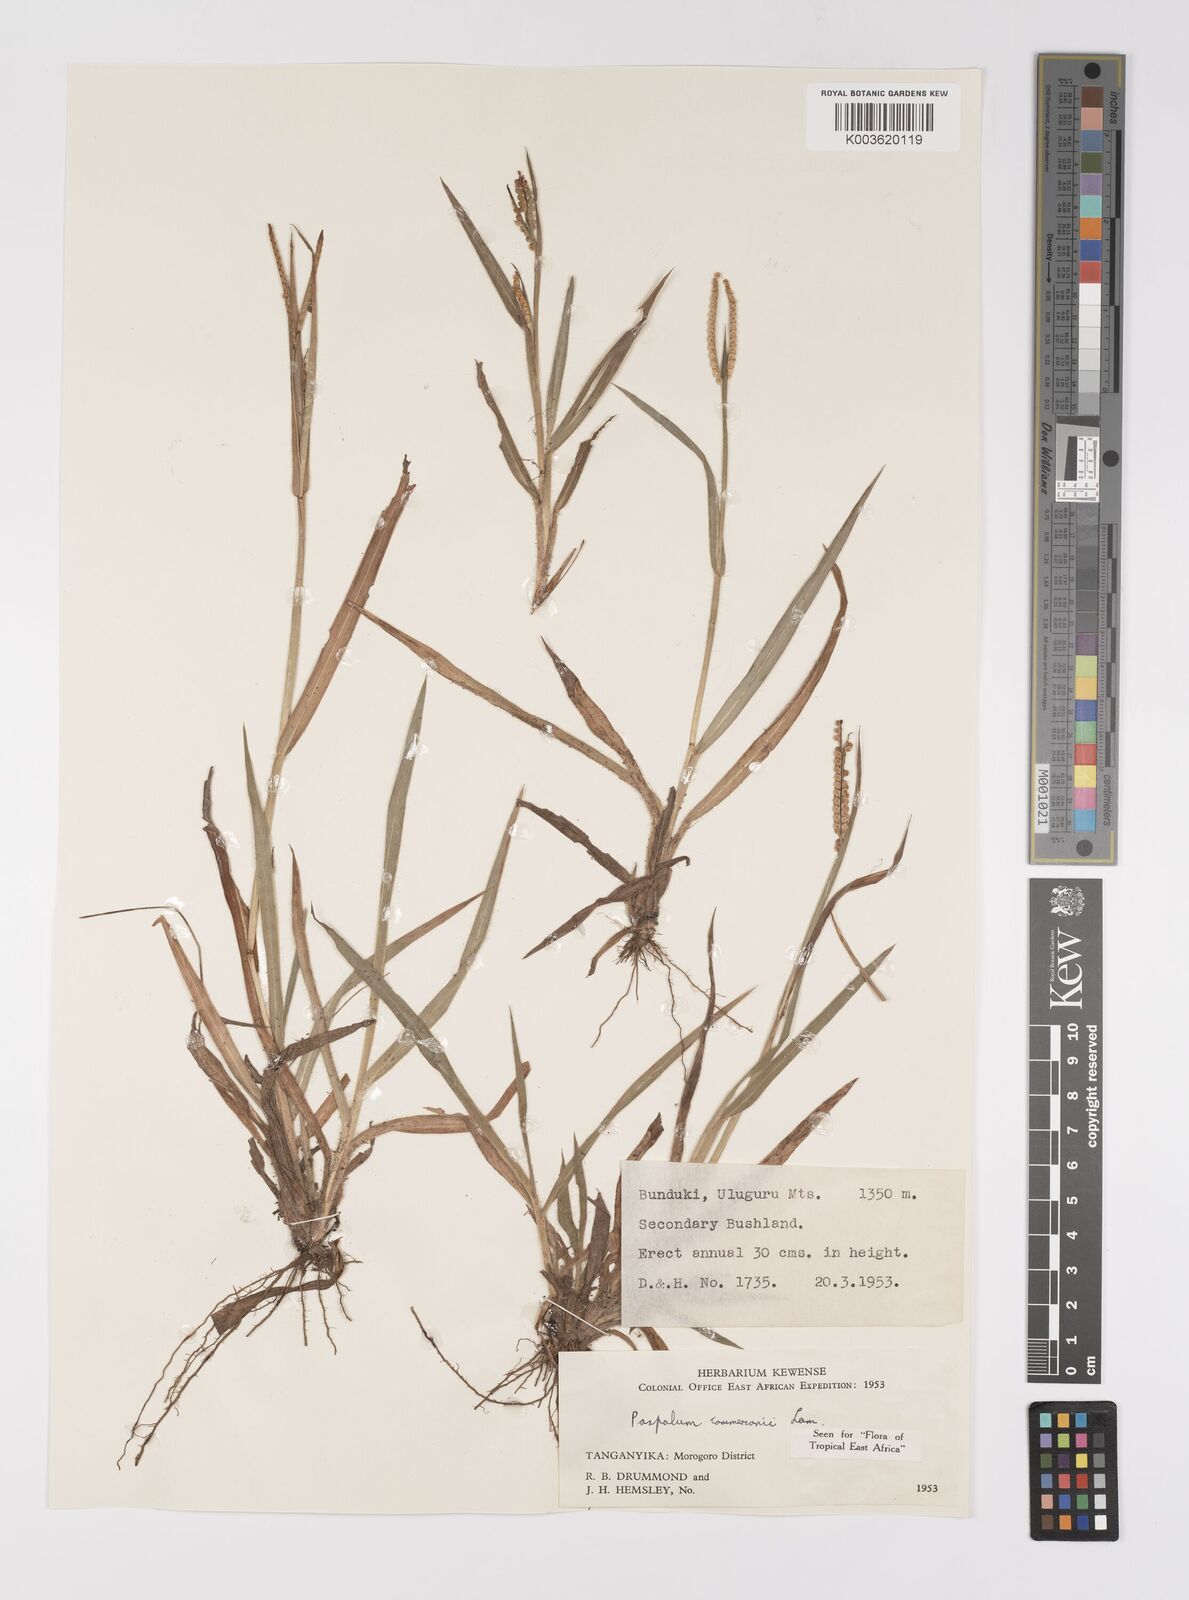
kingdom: Plantae
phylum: Tracheophyta
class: Liliopsida
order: Poales
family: Poaceae
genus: Paspalum
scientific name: Paspalum scrobiculatum
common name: Kodo millet
